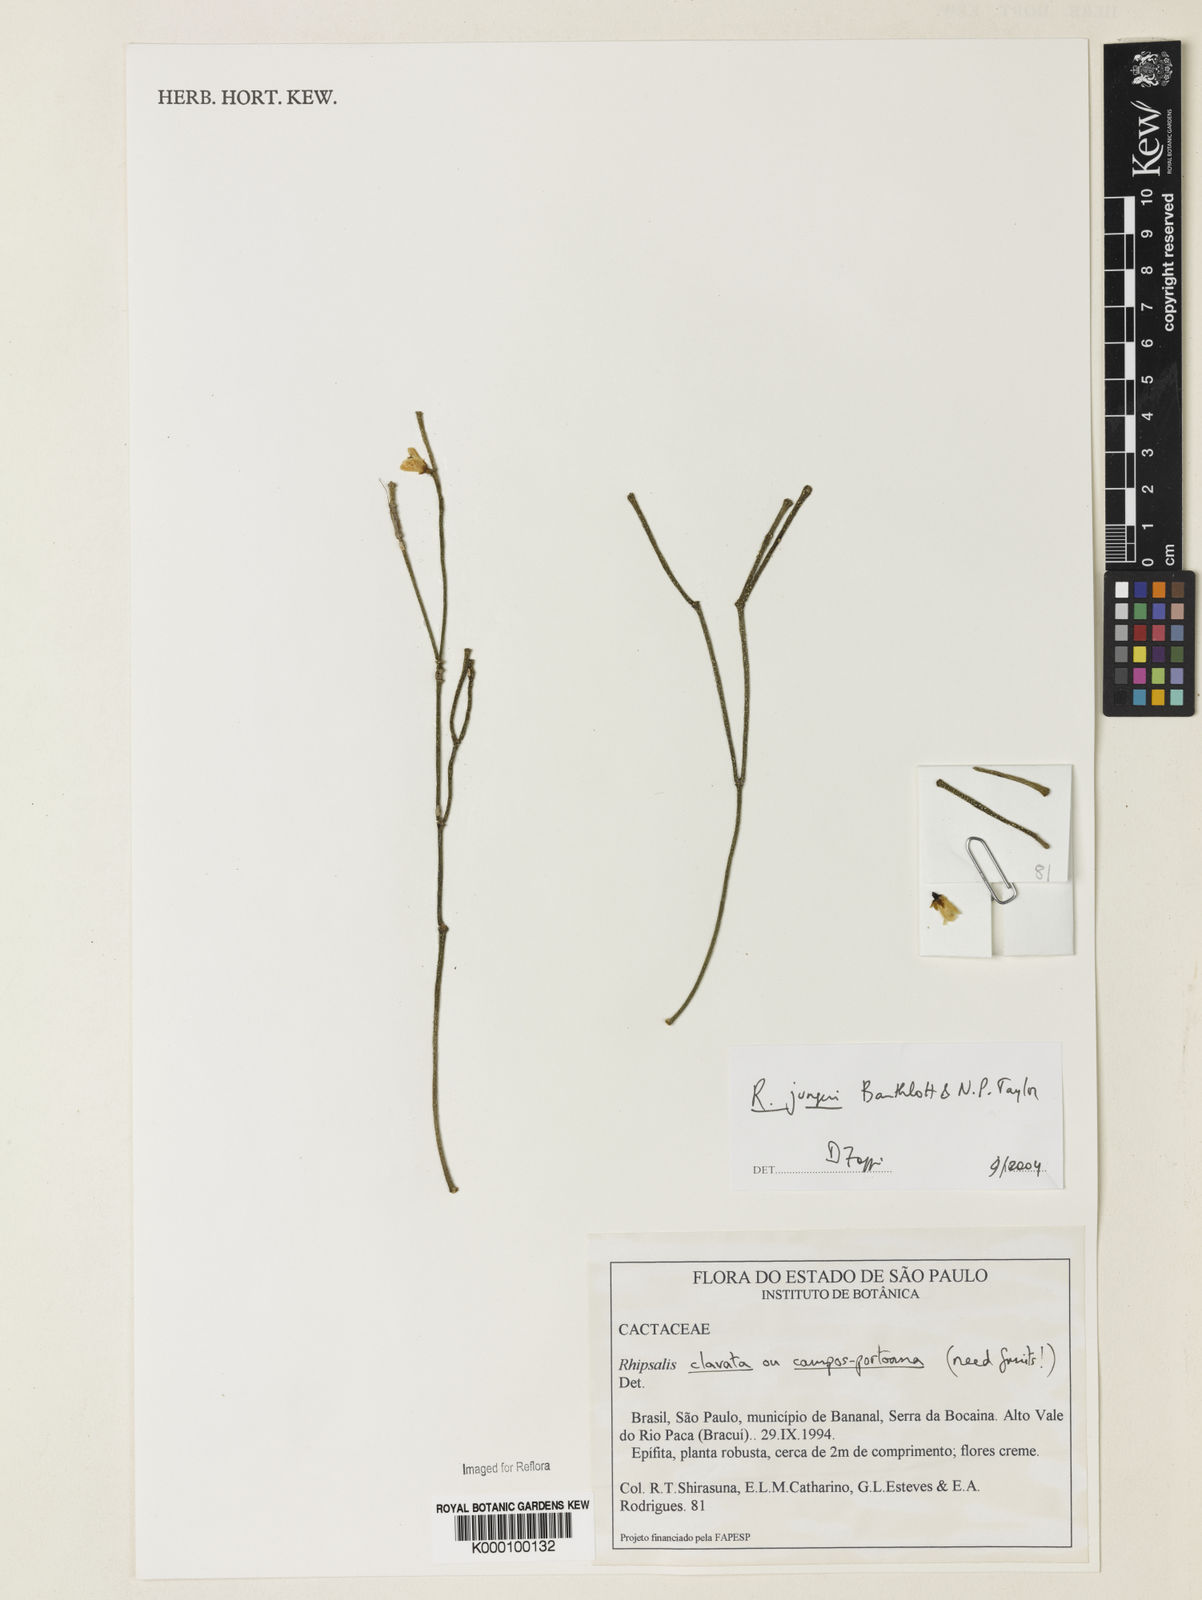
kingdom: Plantae
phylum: Tracheophyta
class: Magnoliopsida
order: Caryophyllales
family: Cactaceae
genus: Rhipsalis
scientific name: Rhipsalis
